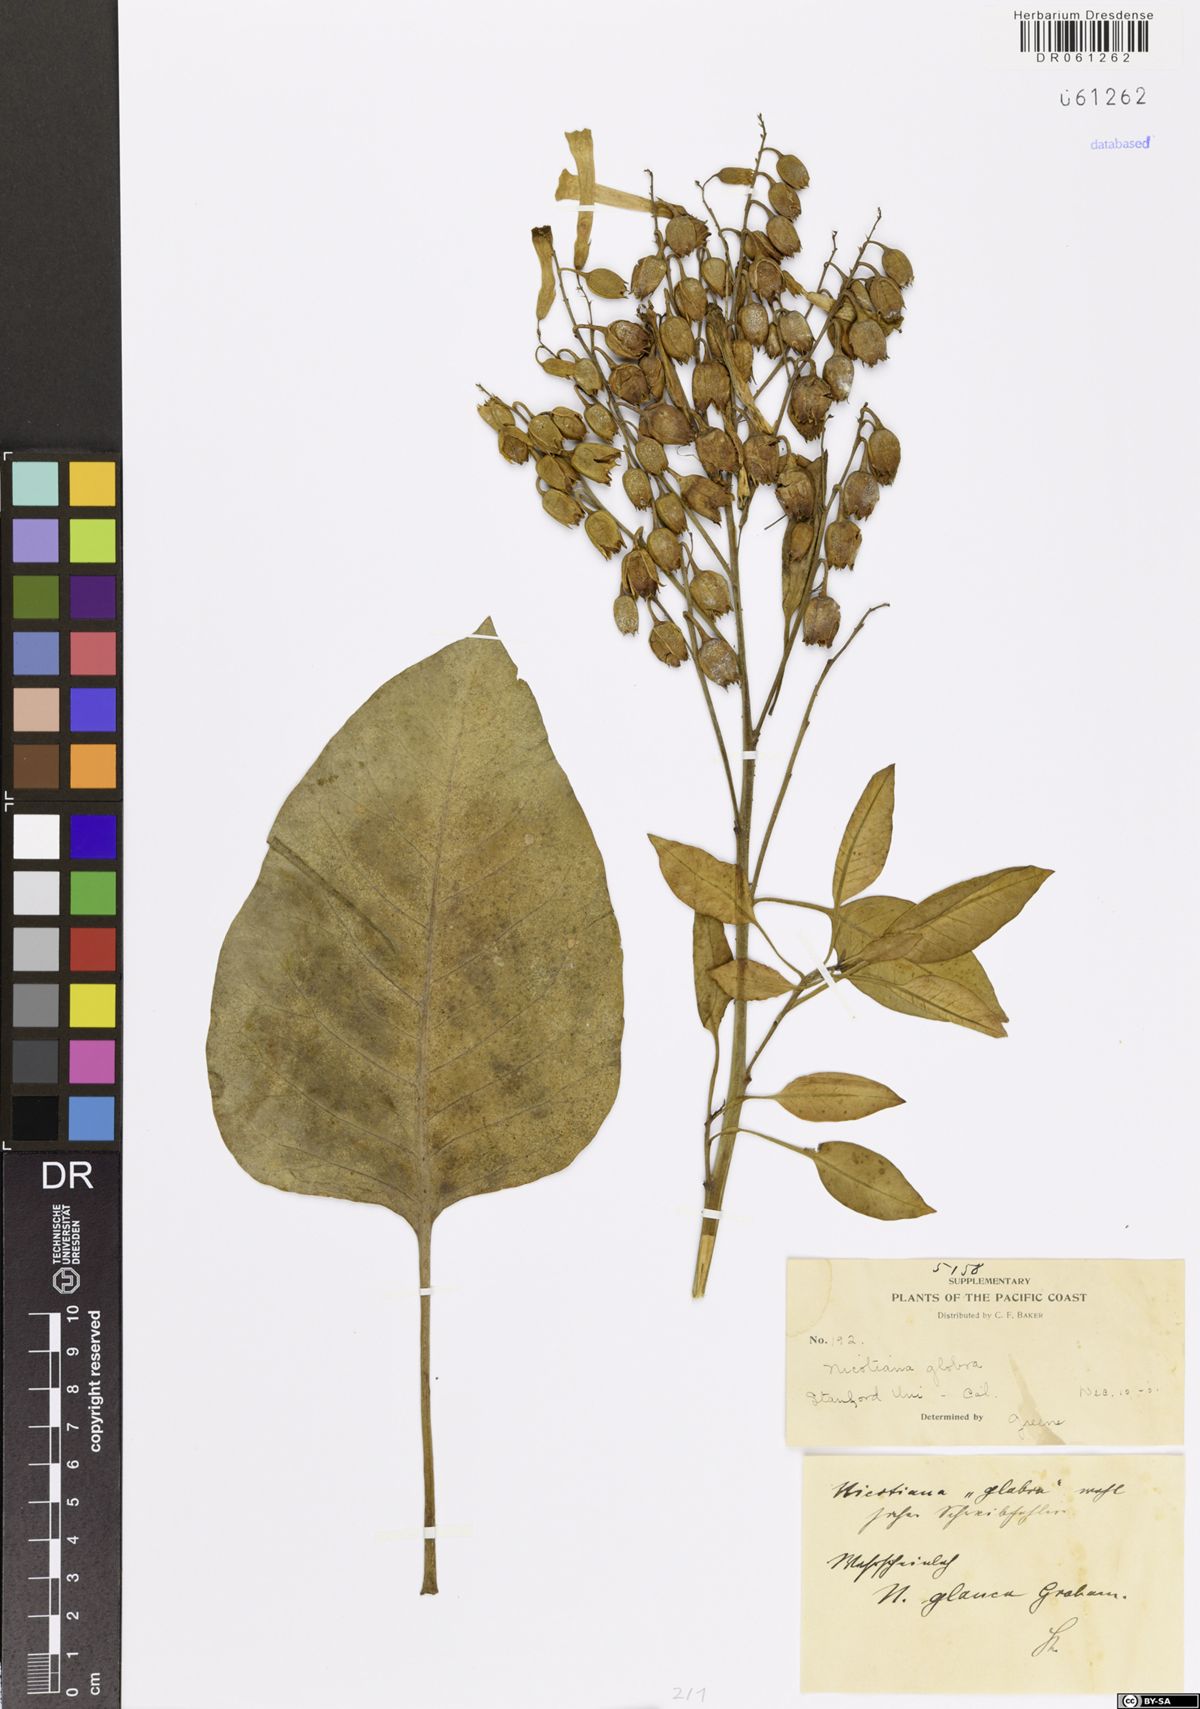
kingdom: Plantae
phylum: Tracheophyta
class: Magnoliopsida
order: Solanales
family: Solanaceae
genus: Nicotiana
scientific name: Nicotiana glauca
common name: Tree tobacco
